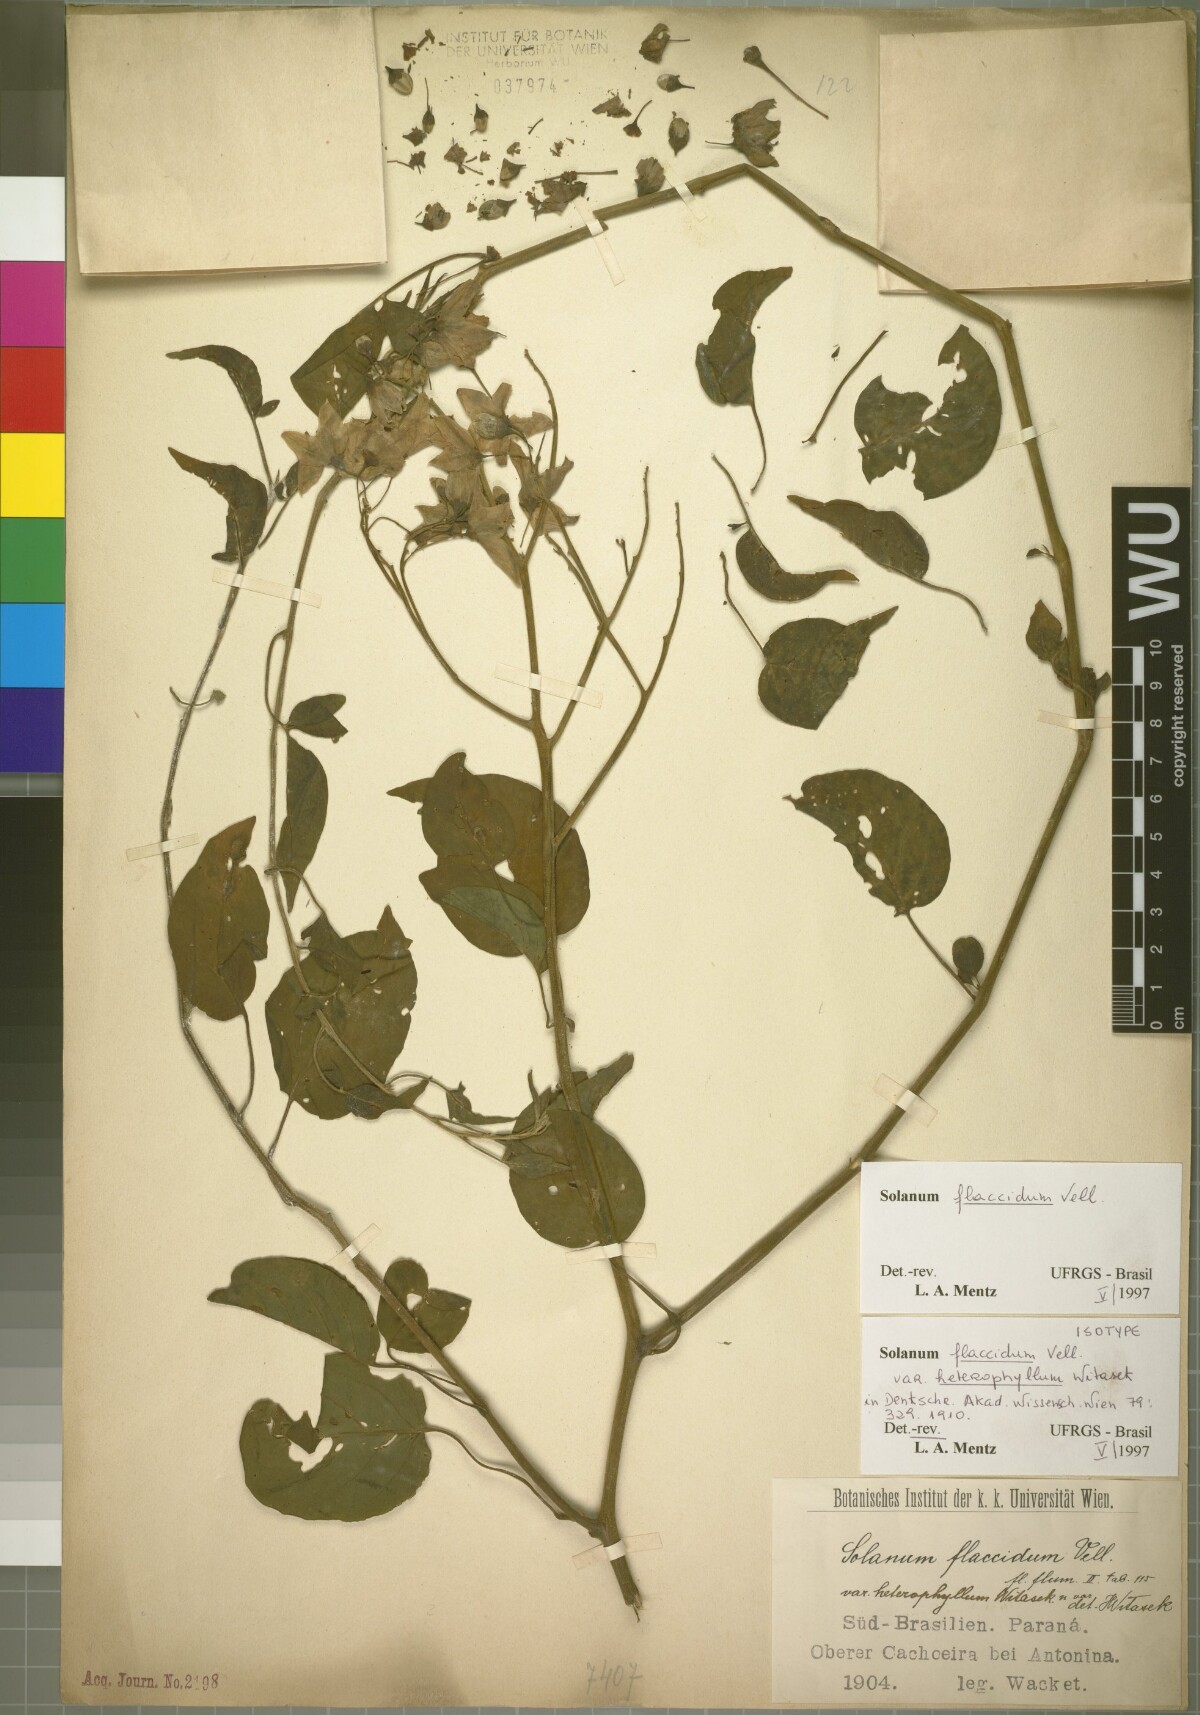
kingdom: Plantae
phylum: Tracheophyta
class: Magnoliopsida
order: Solanales
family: Solanaceae
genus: Solanum
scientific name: Solanum flaccidum
